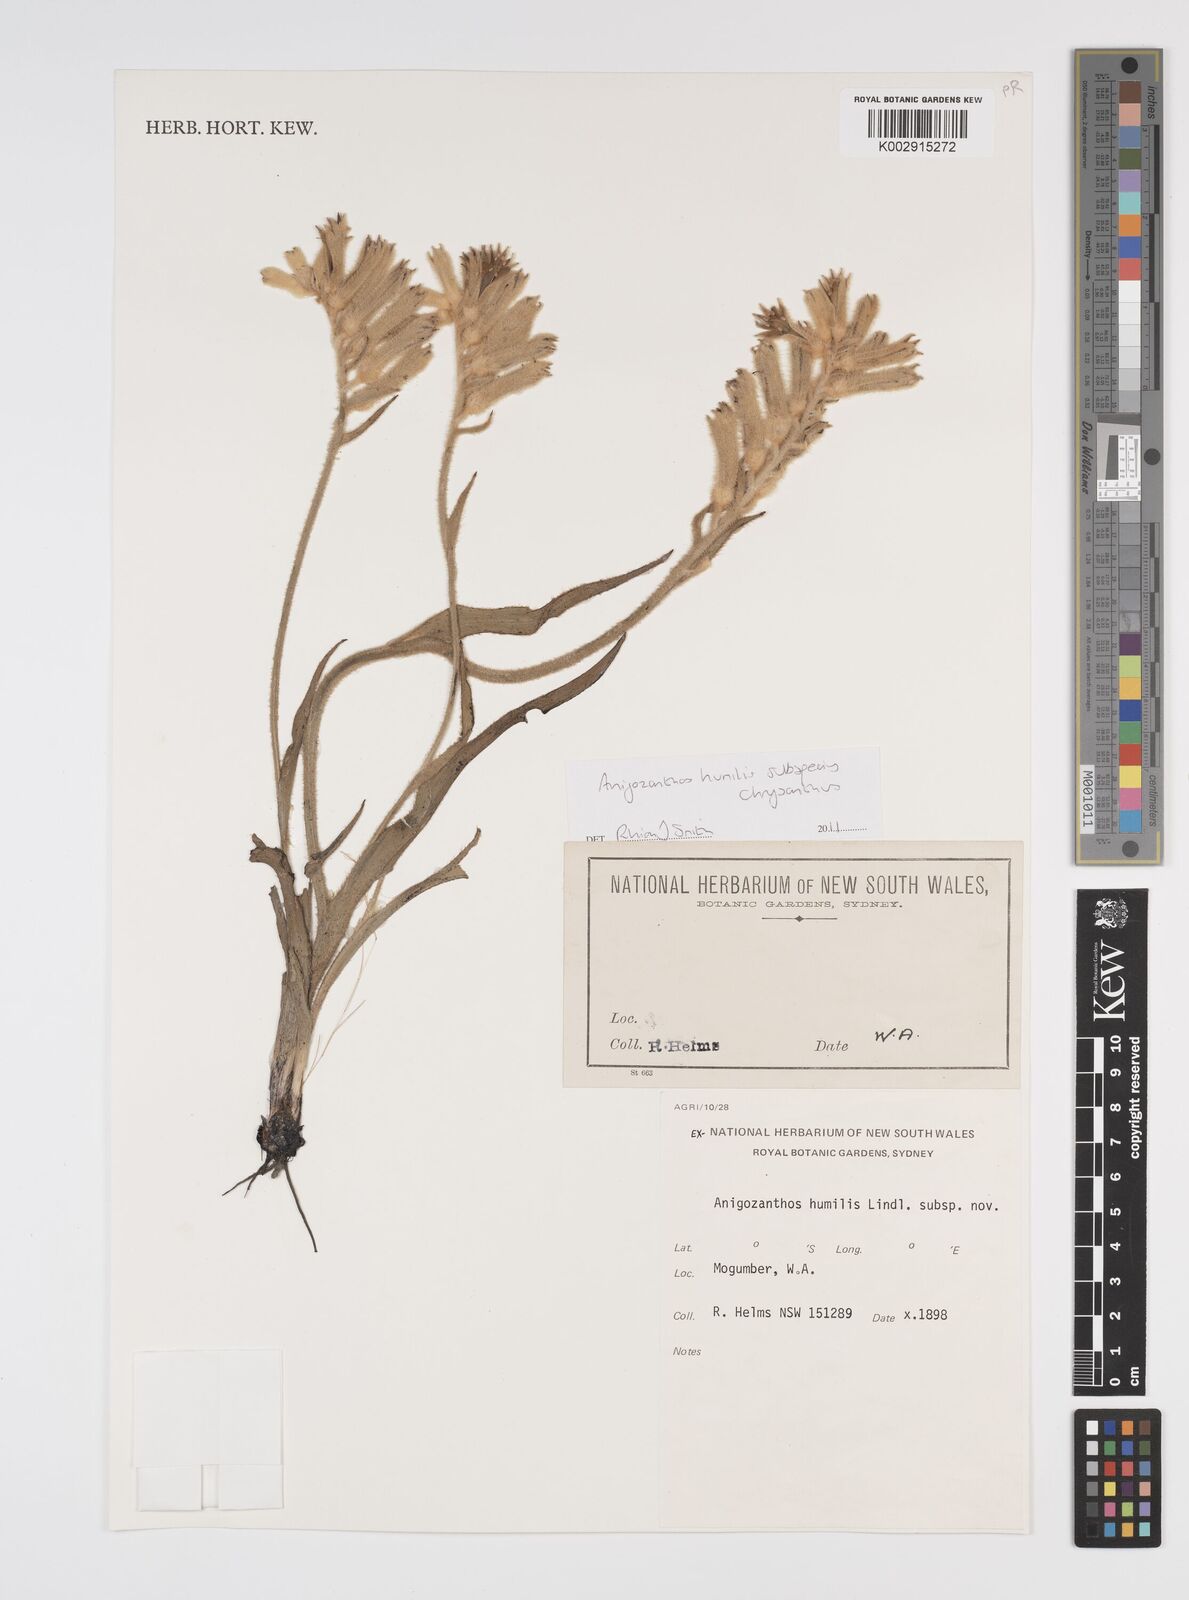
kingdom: Plantae
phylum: Tracheophyta
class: Liliopsida
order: Commelinales
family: Haemodoraceae
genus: Anigozanthos
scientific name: Anigozanthos humilis
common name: Cat's-paw
